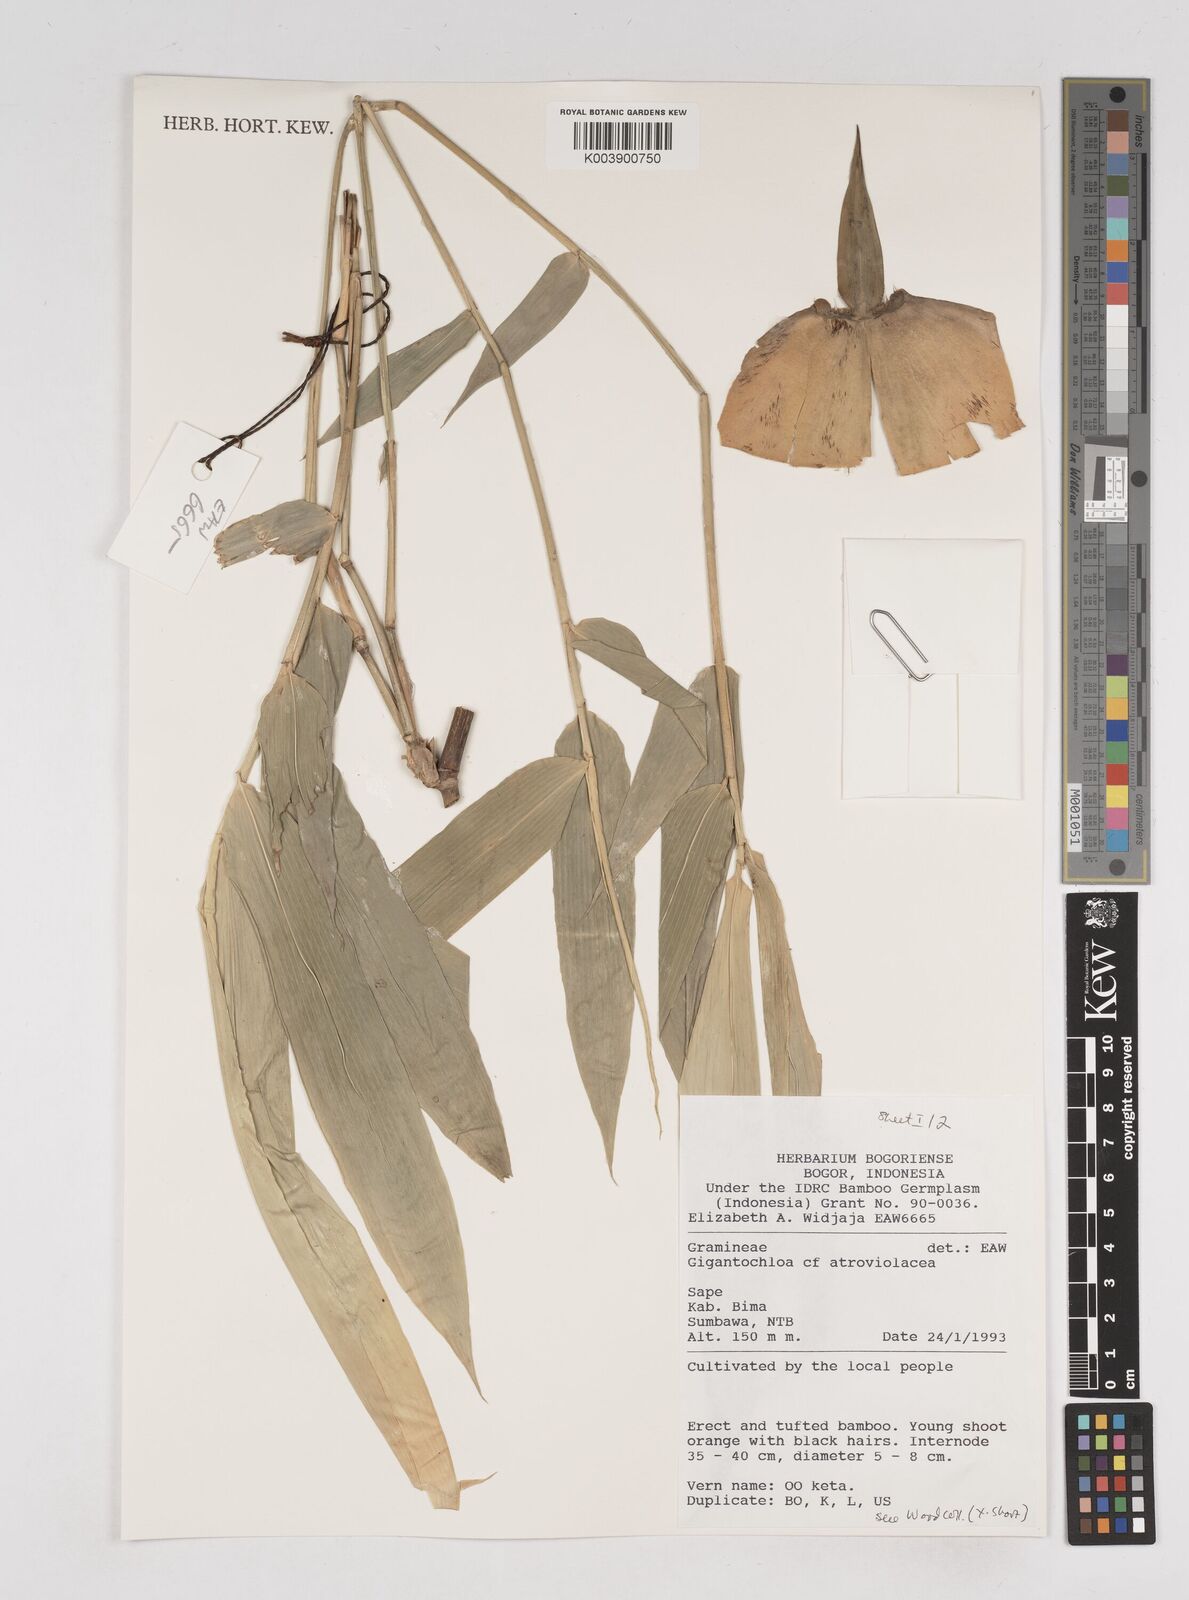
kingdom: Plantae
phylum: Tracheophyta
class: Liliopsida
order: Poales
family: Poaceae
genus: Gigantochloa
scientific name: Gigantochloa
